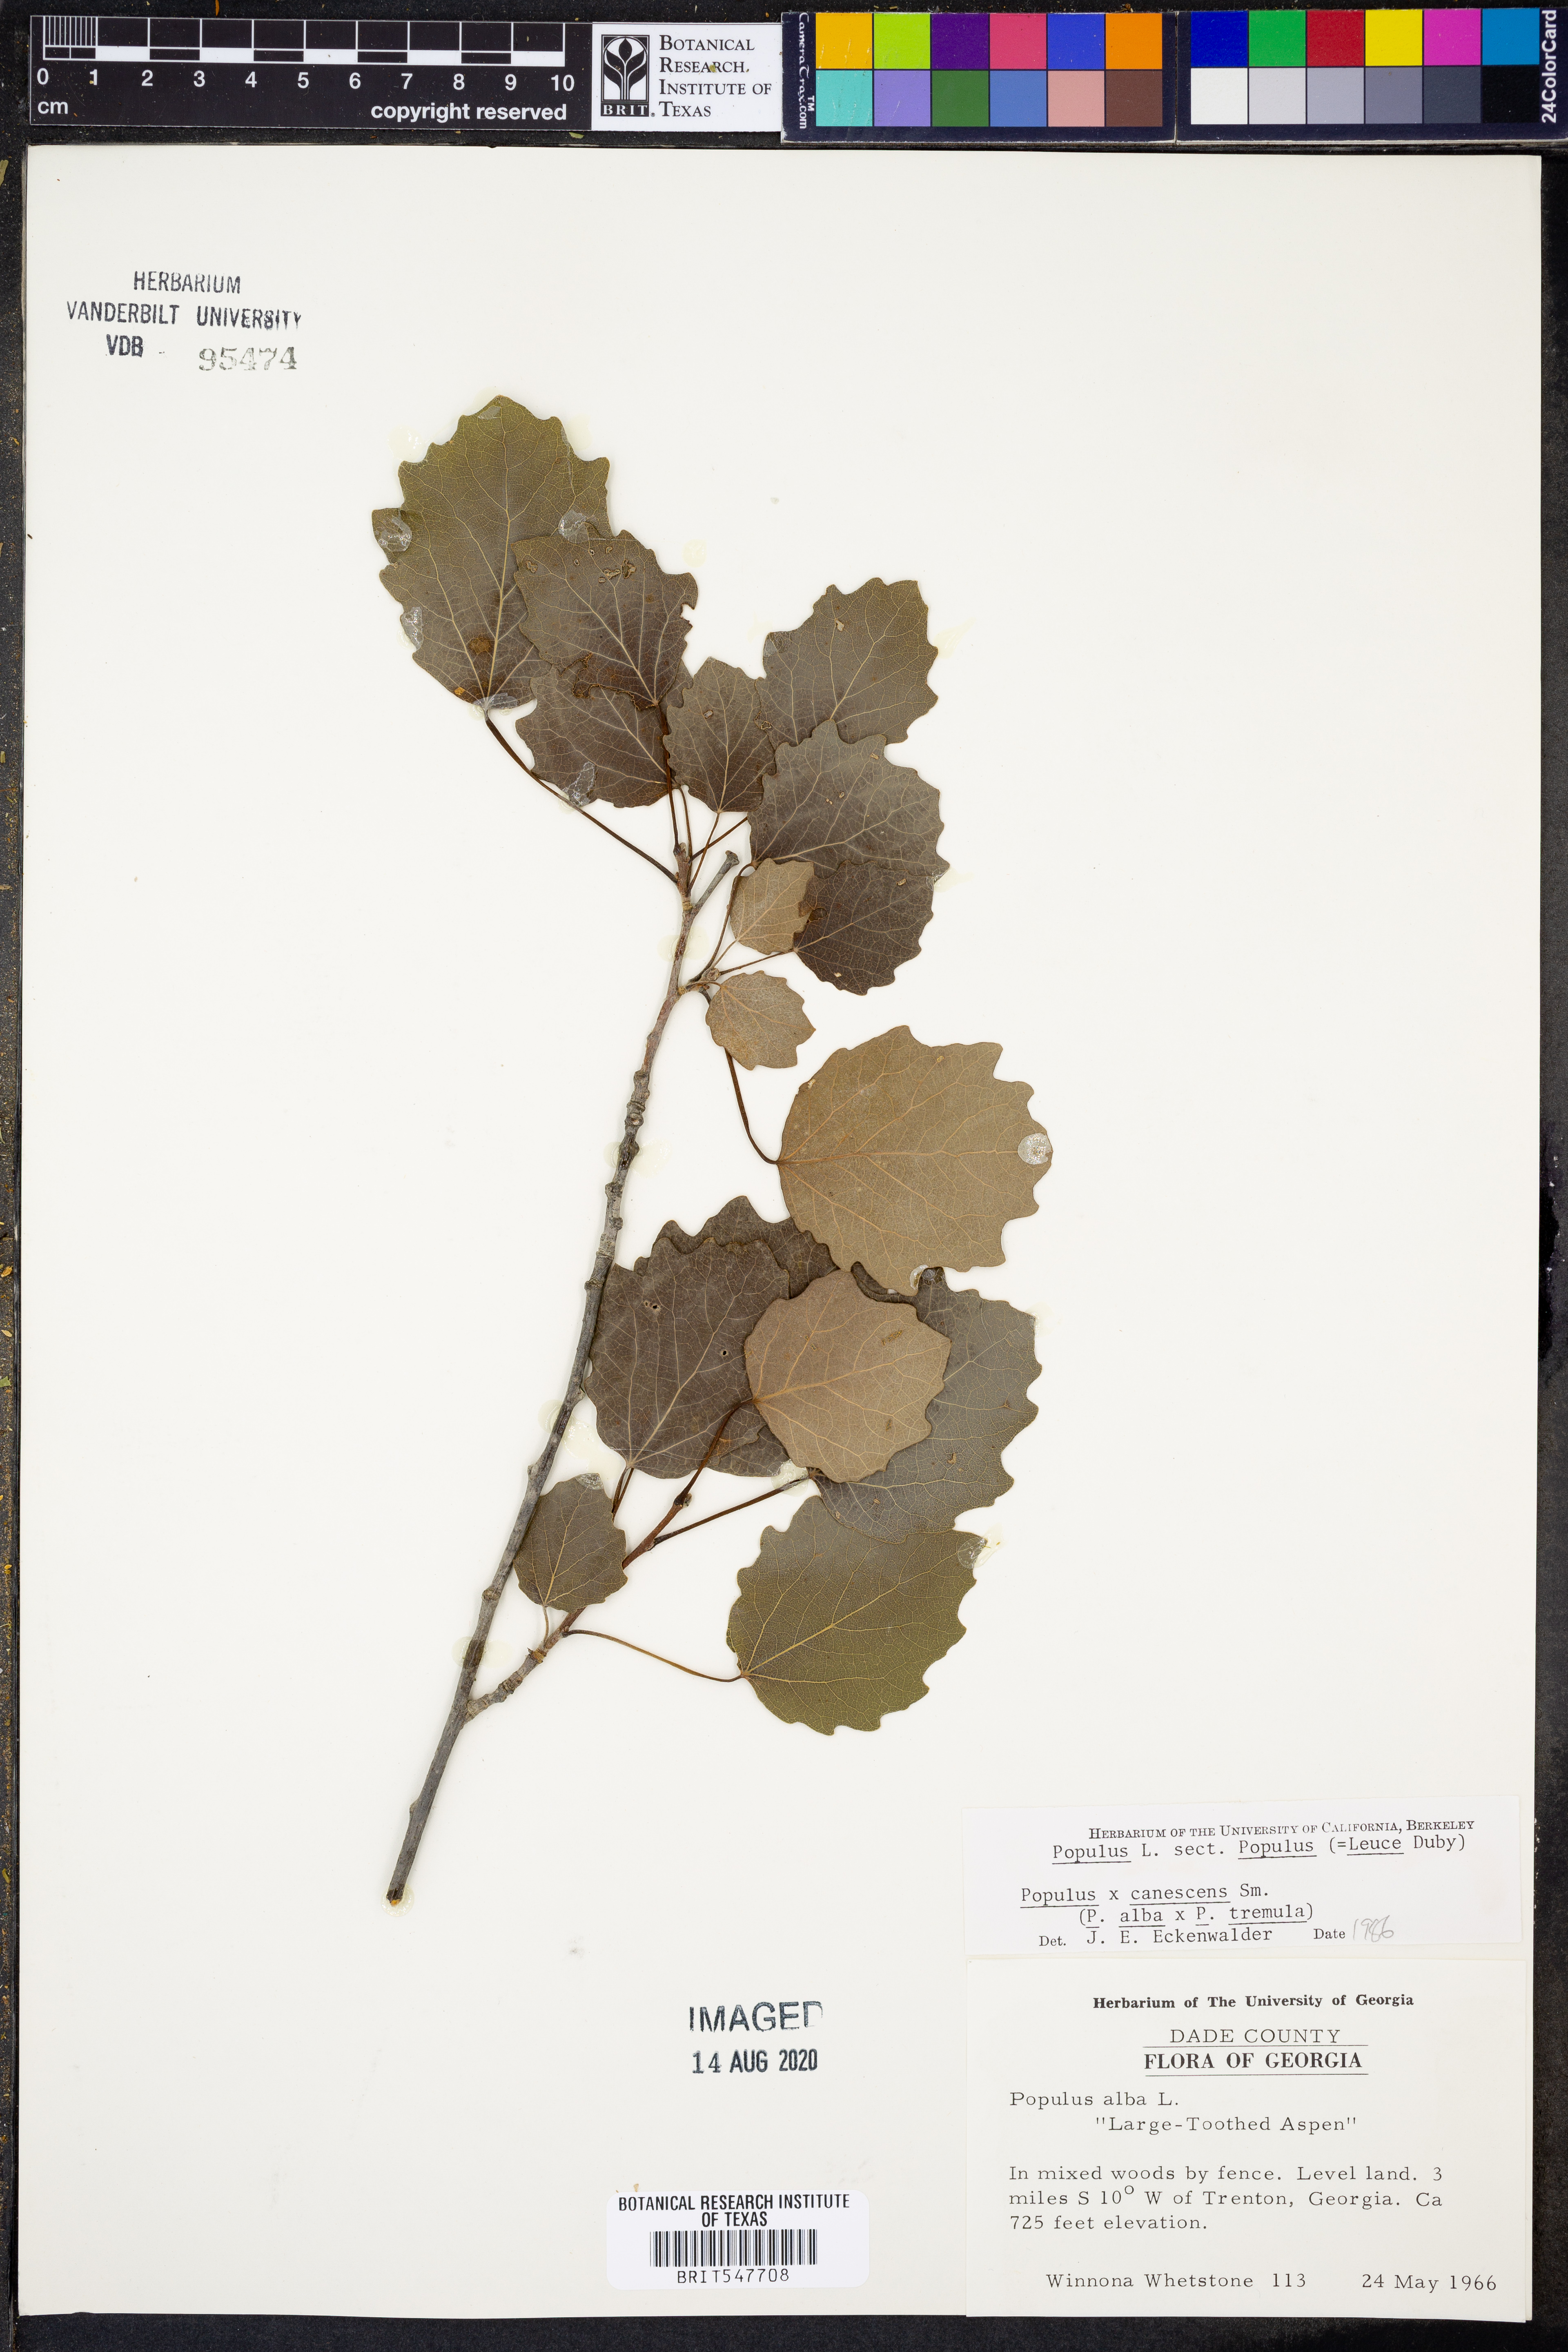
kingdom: Plantae
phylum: Tracheophyta
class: Magnoliopsida
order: Malpighiales
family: Salicaceae
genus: Populus
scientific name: Populus alba
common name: White poplar
